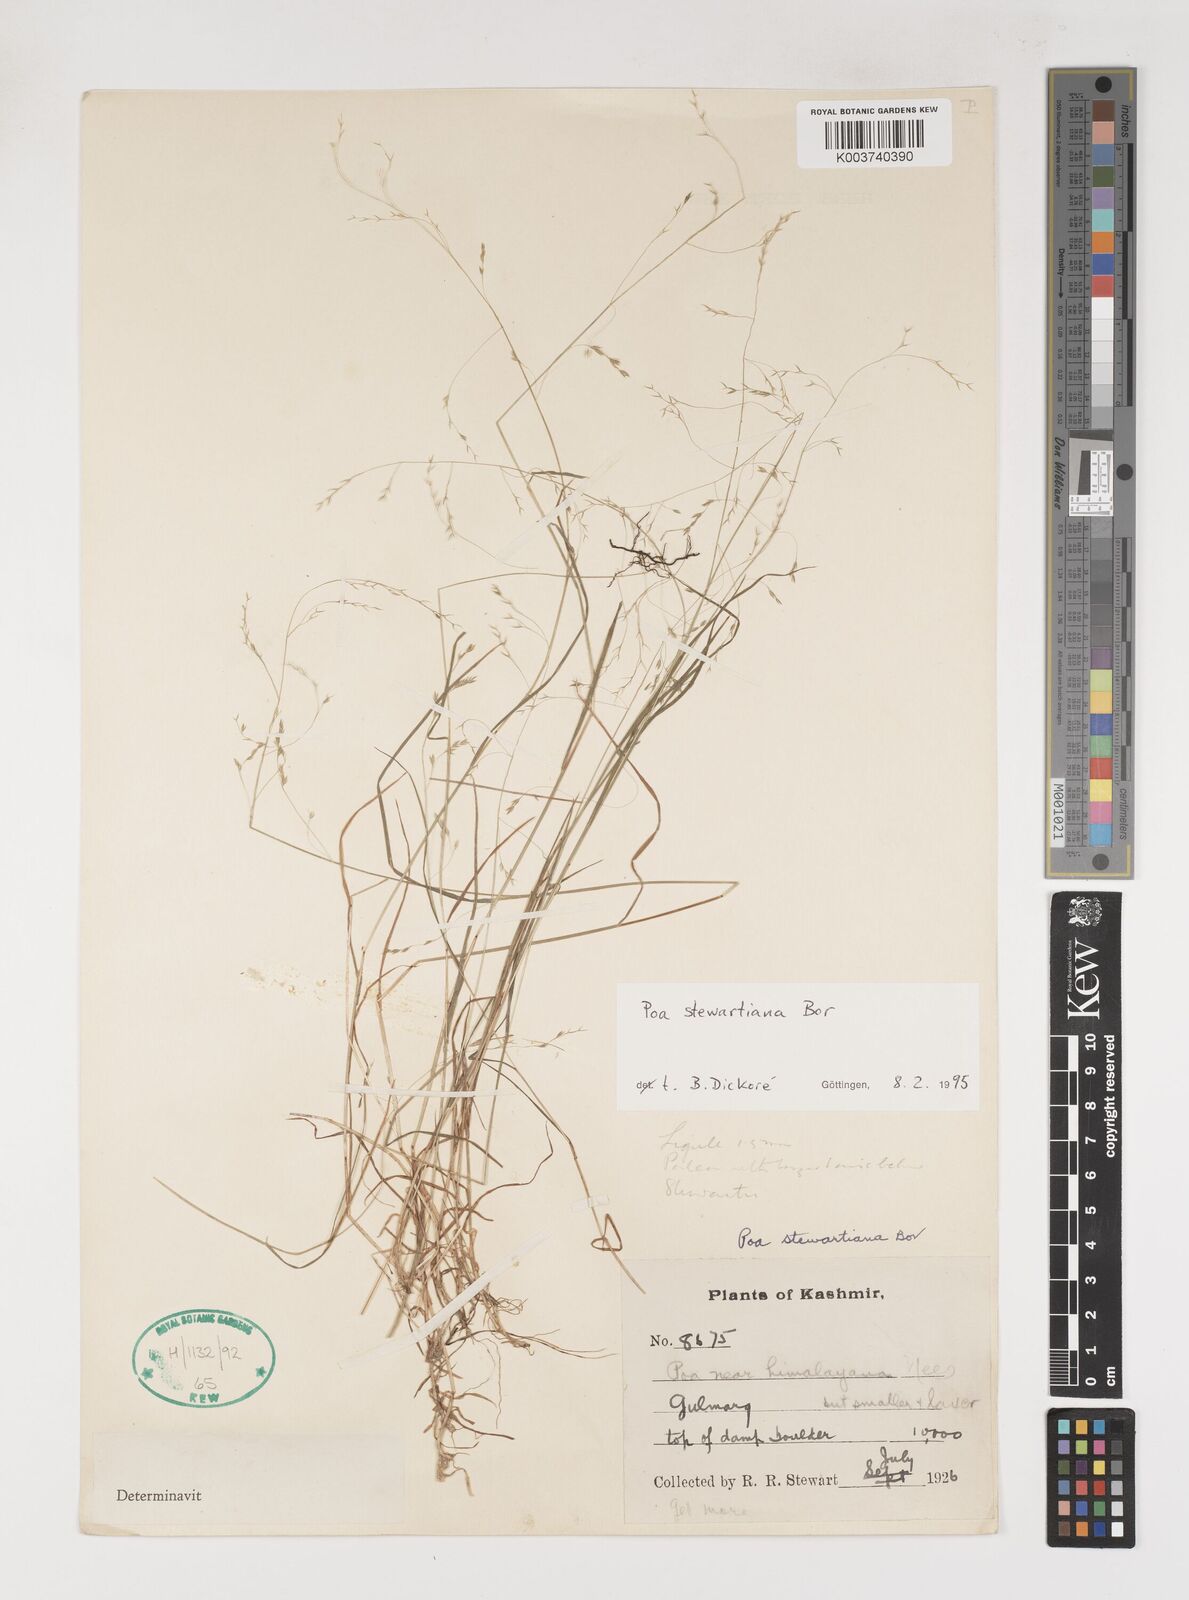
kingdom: Plantae
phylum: Tracheophyta
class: Liliopsida
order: Poales
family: Poaceae
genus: Poa
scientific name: Poa stewartiana
